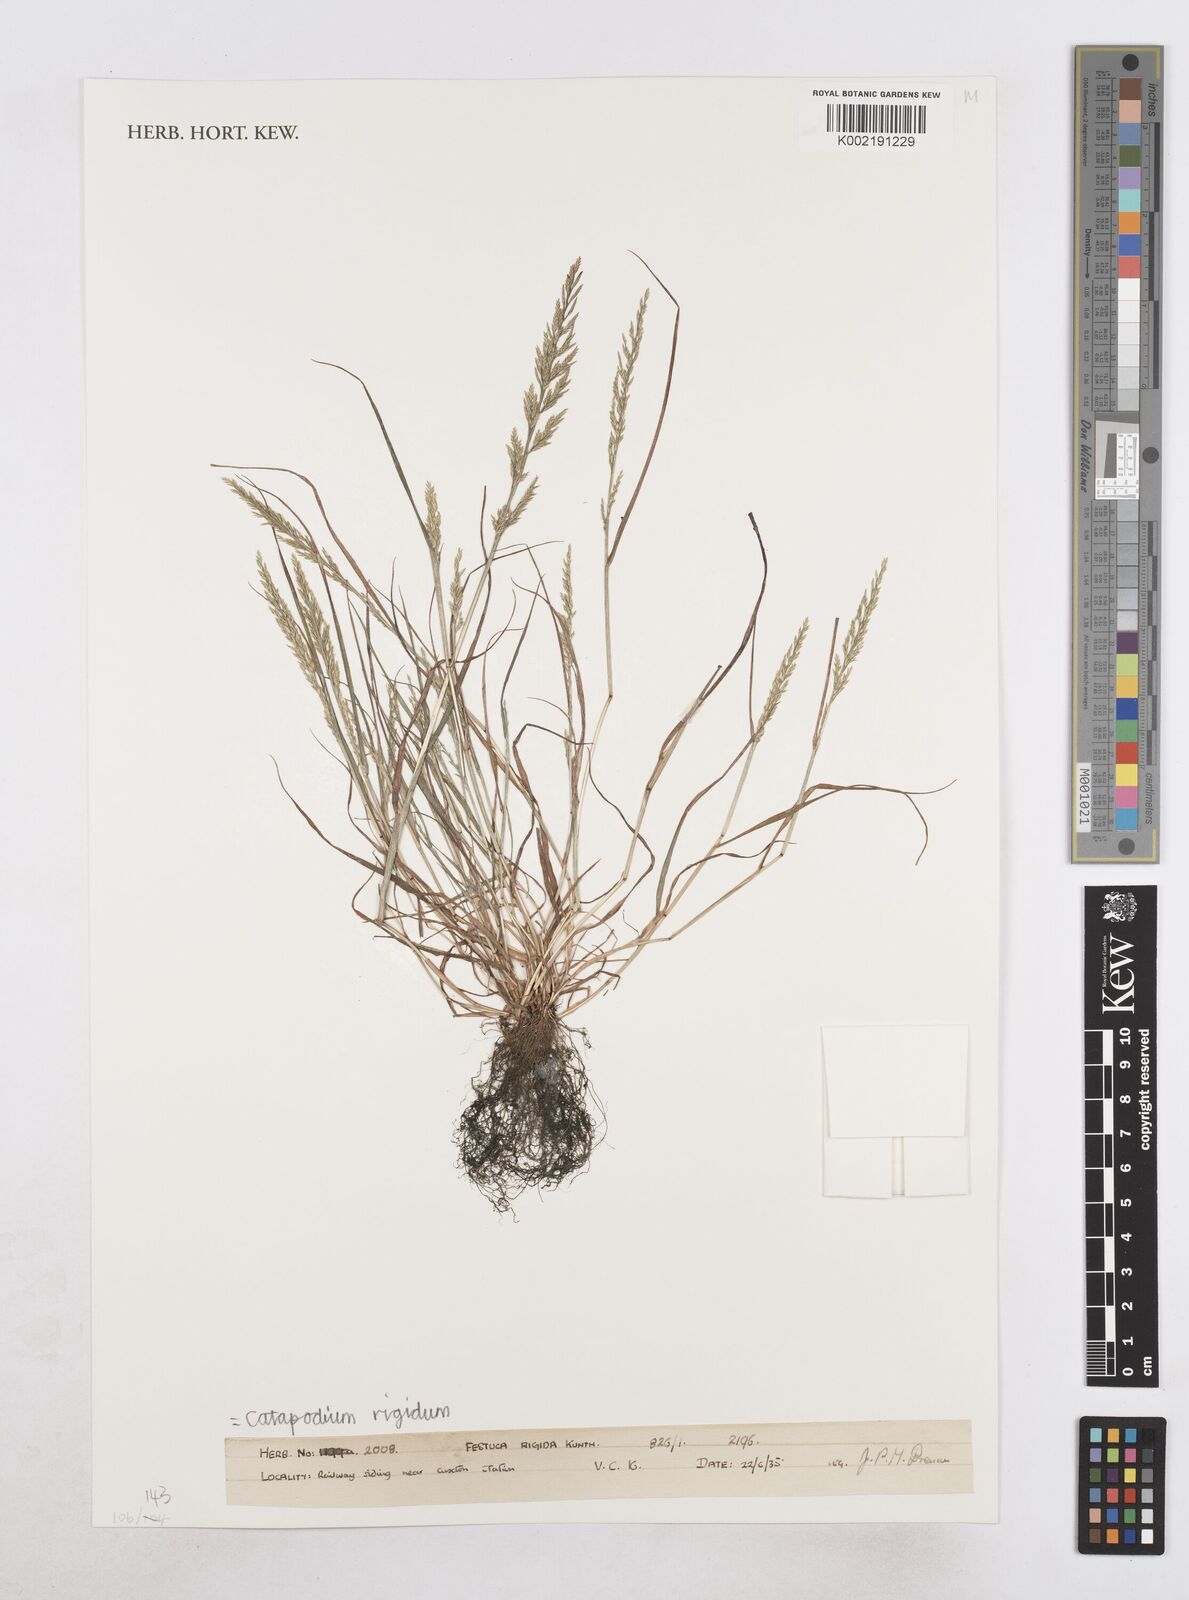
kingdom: Plantae
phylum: Tracheophyta
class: Liliopsida
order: Poales
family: Poaceae
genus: Catapodium
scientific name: Catapodium rigidum
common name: Fern-grass
